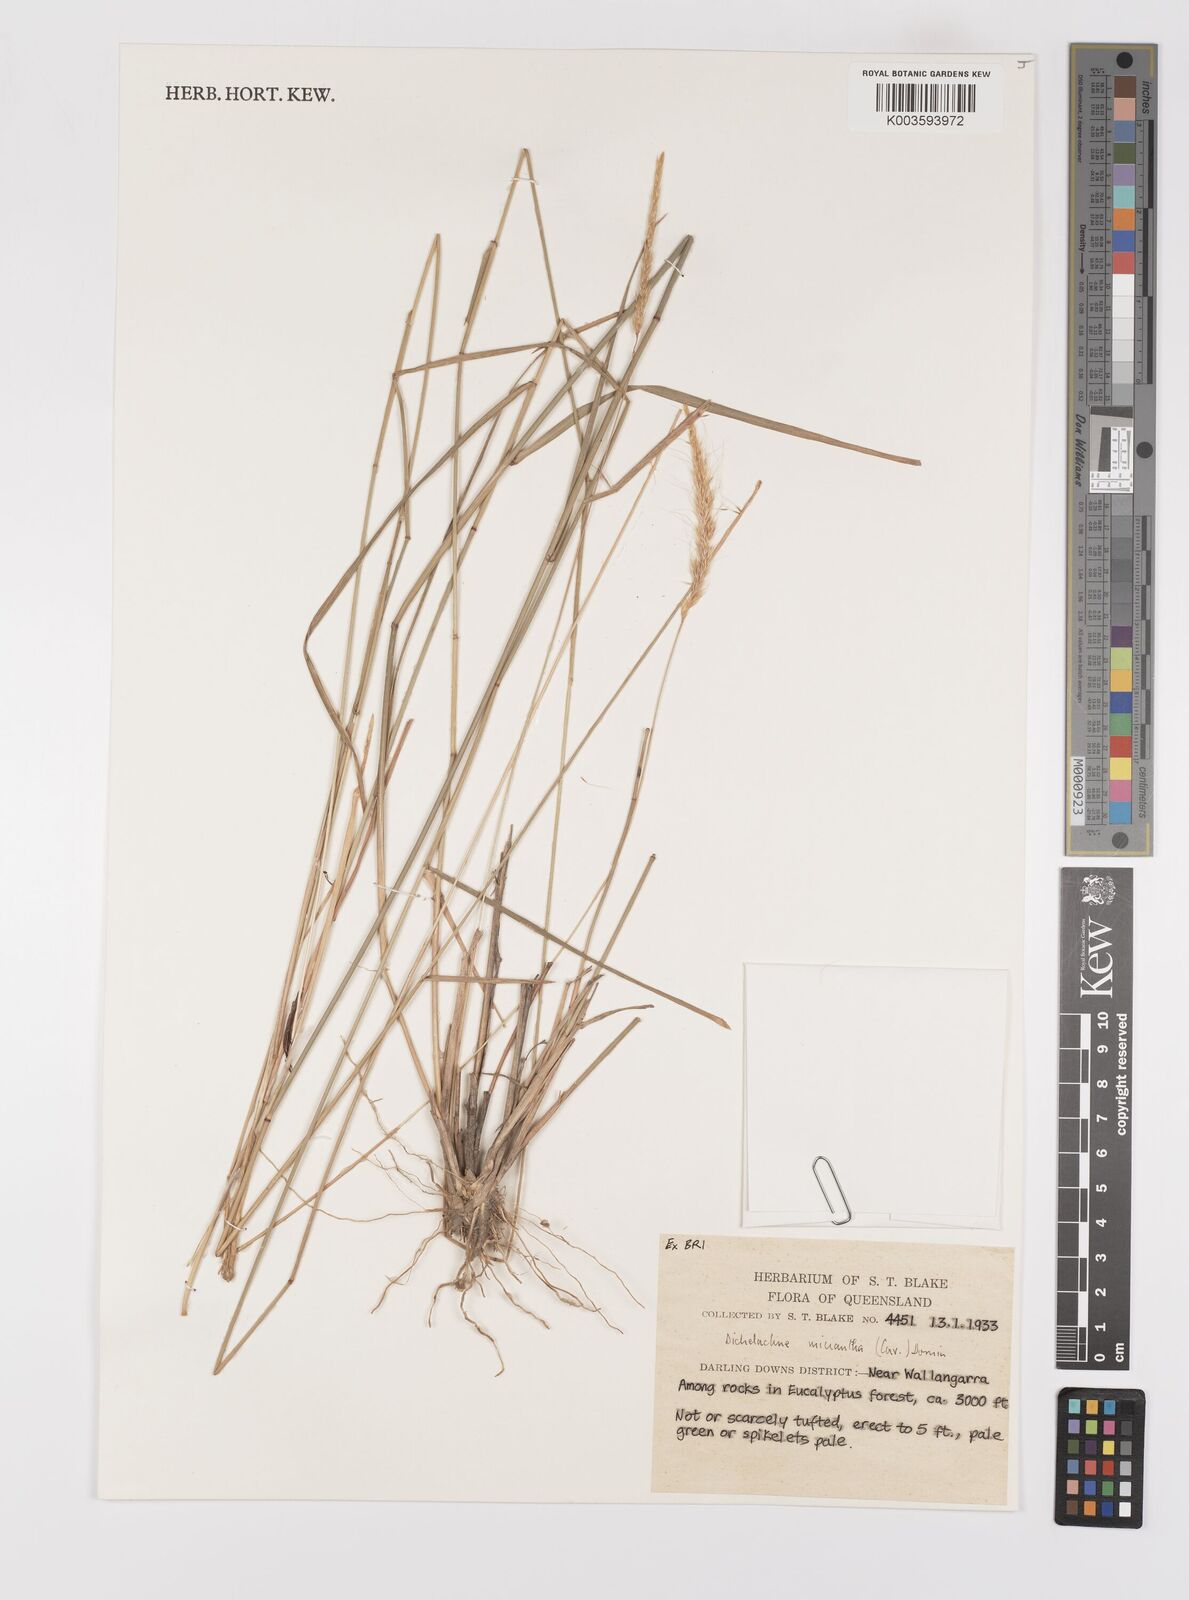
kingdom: Plantae
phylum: Tracheophyta
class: Liliopsida
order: Poales
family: Poaceae
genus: Dichelachne
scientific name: Dichelachne micrantha
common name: Plumegrass
